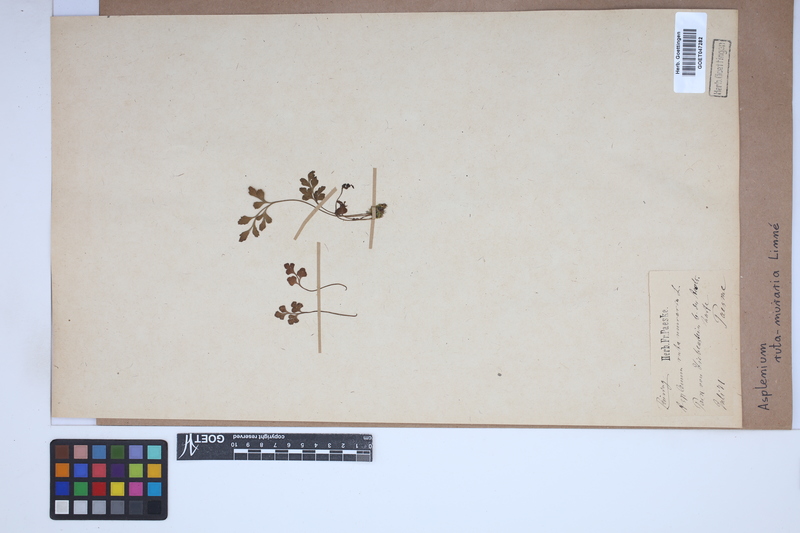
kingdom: Plantae
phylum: Tracheophyta
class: Polypodiopsida
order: Polypodiales
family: Aspleniaceae
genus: Asplenium
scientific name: Asplenium ruta-muraria
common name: Wall-rue
